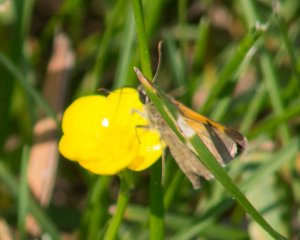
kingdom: Animalia
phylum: Arthropoda
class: Insecta
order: Lepidoptera
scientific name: Lepidoptera
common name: Butterflies
